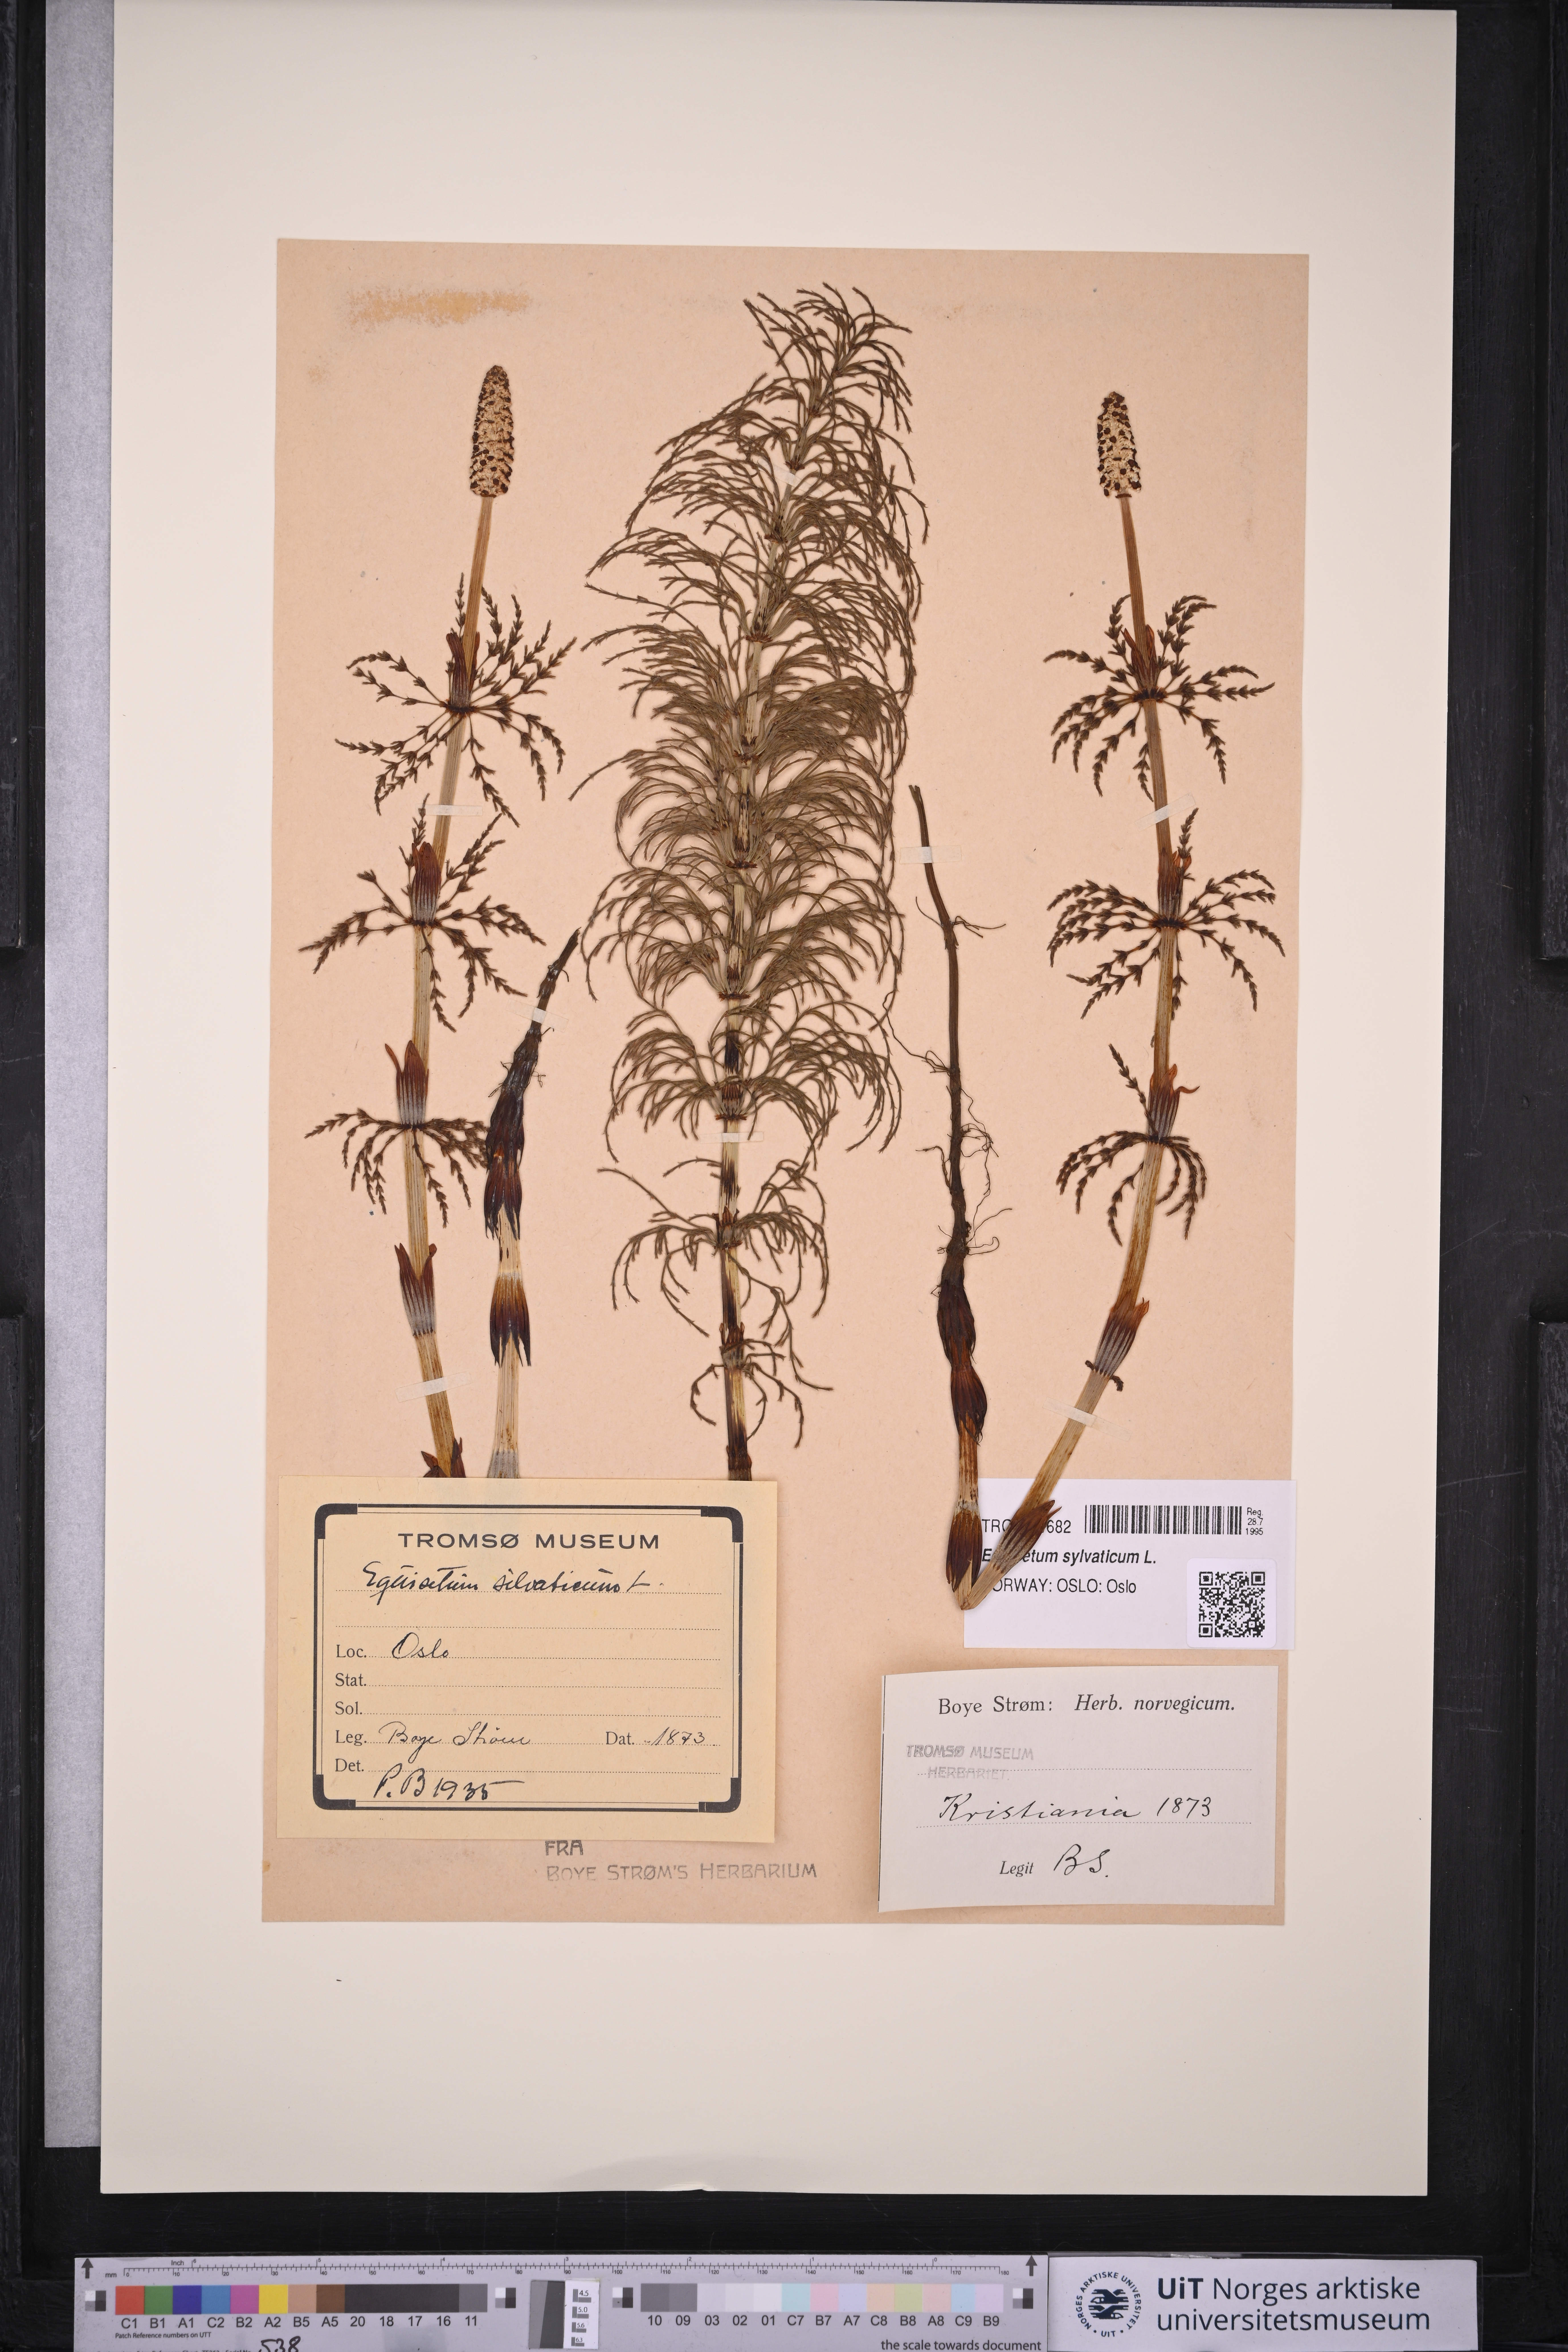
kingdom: Plantae
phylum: Tracheophyta
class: Polypodiopsida
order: Equisetales
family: Equisetaceae
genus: Equisetum
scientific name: Equisetum sylvaticum
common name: Wood horsetail
